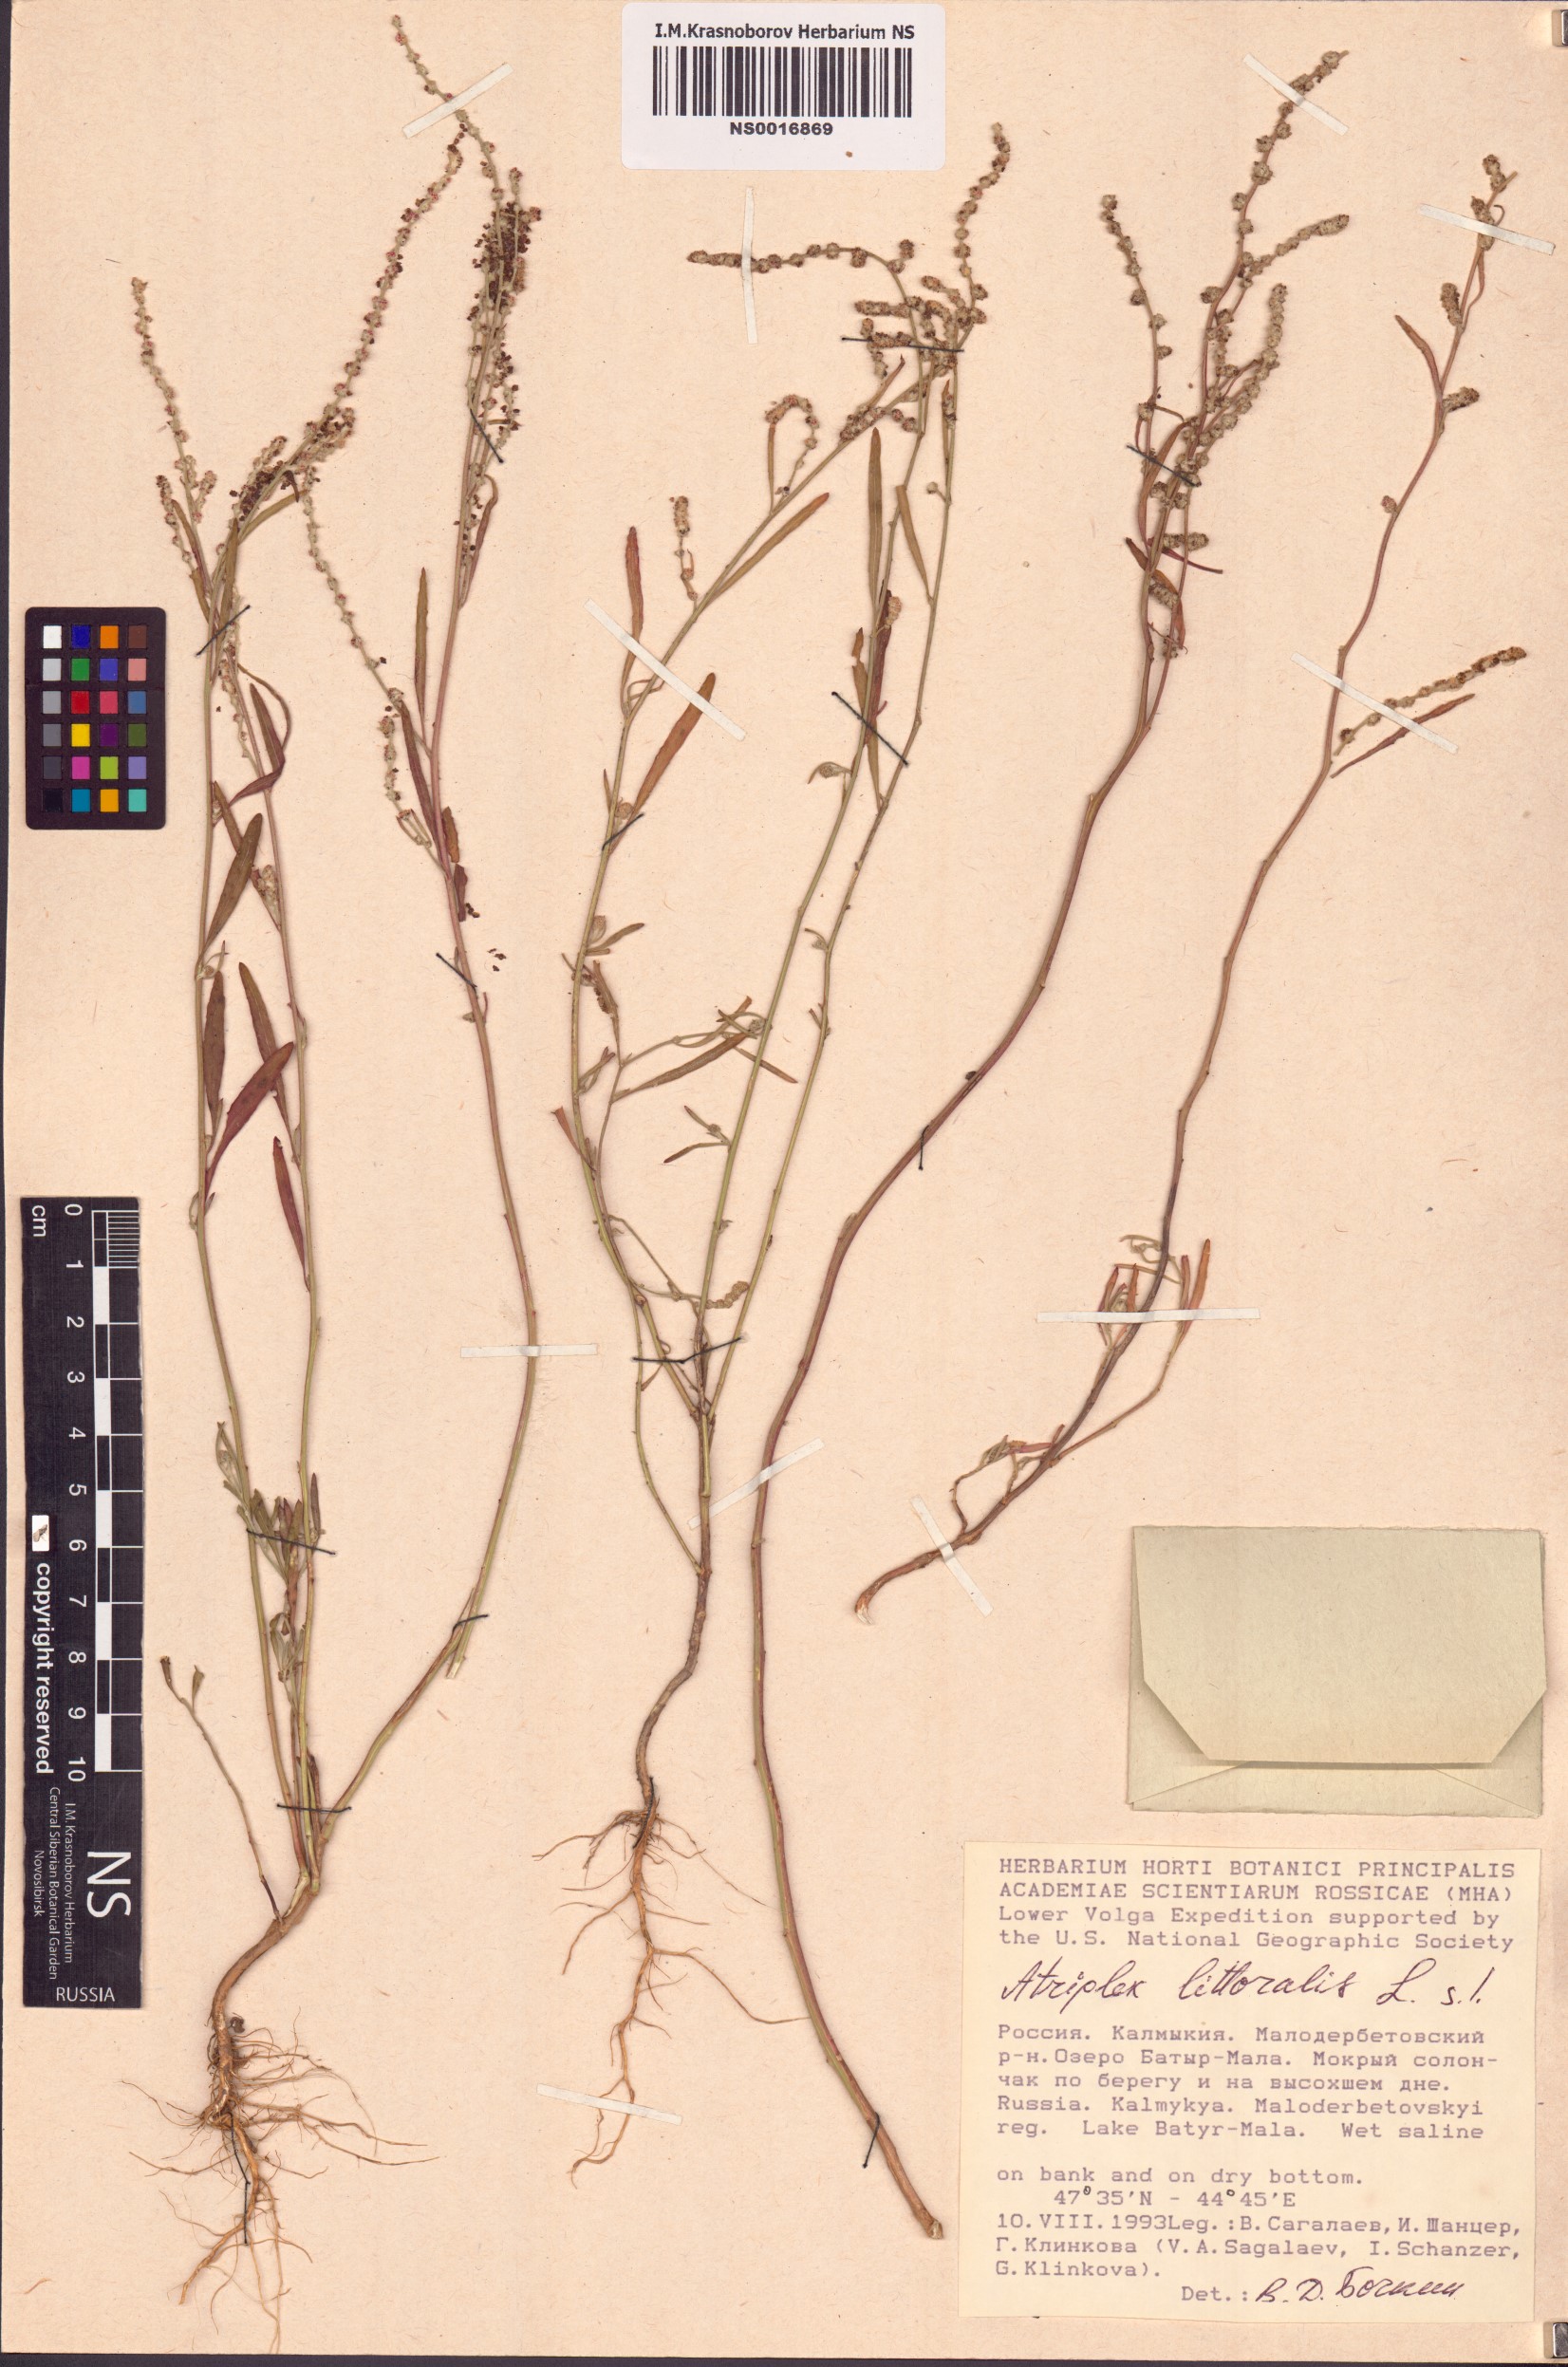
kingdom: Plantae
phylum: Tracheophyta
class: Magnoliopsida
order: Caryophyllales
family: Amaranthaceae
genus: Atriplex
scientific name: Atriplex littoralis
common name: Grass-leaved orache
